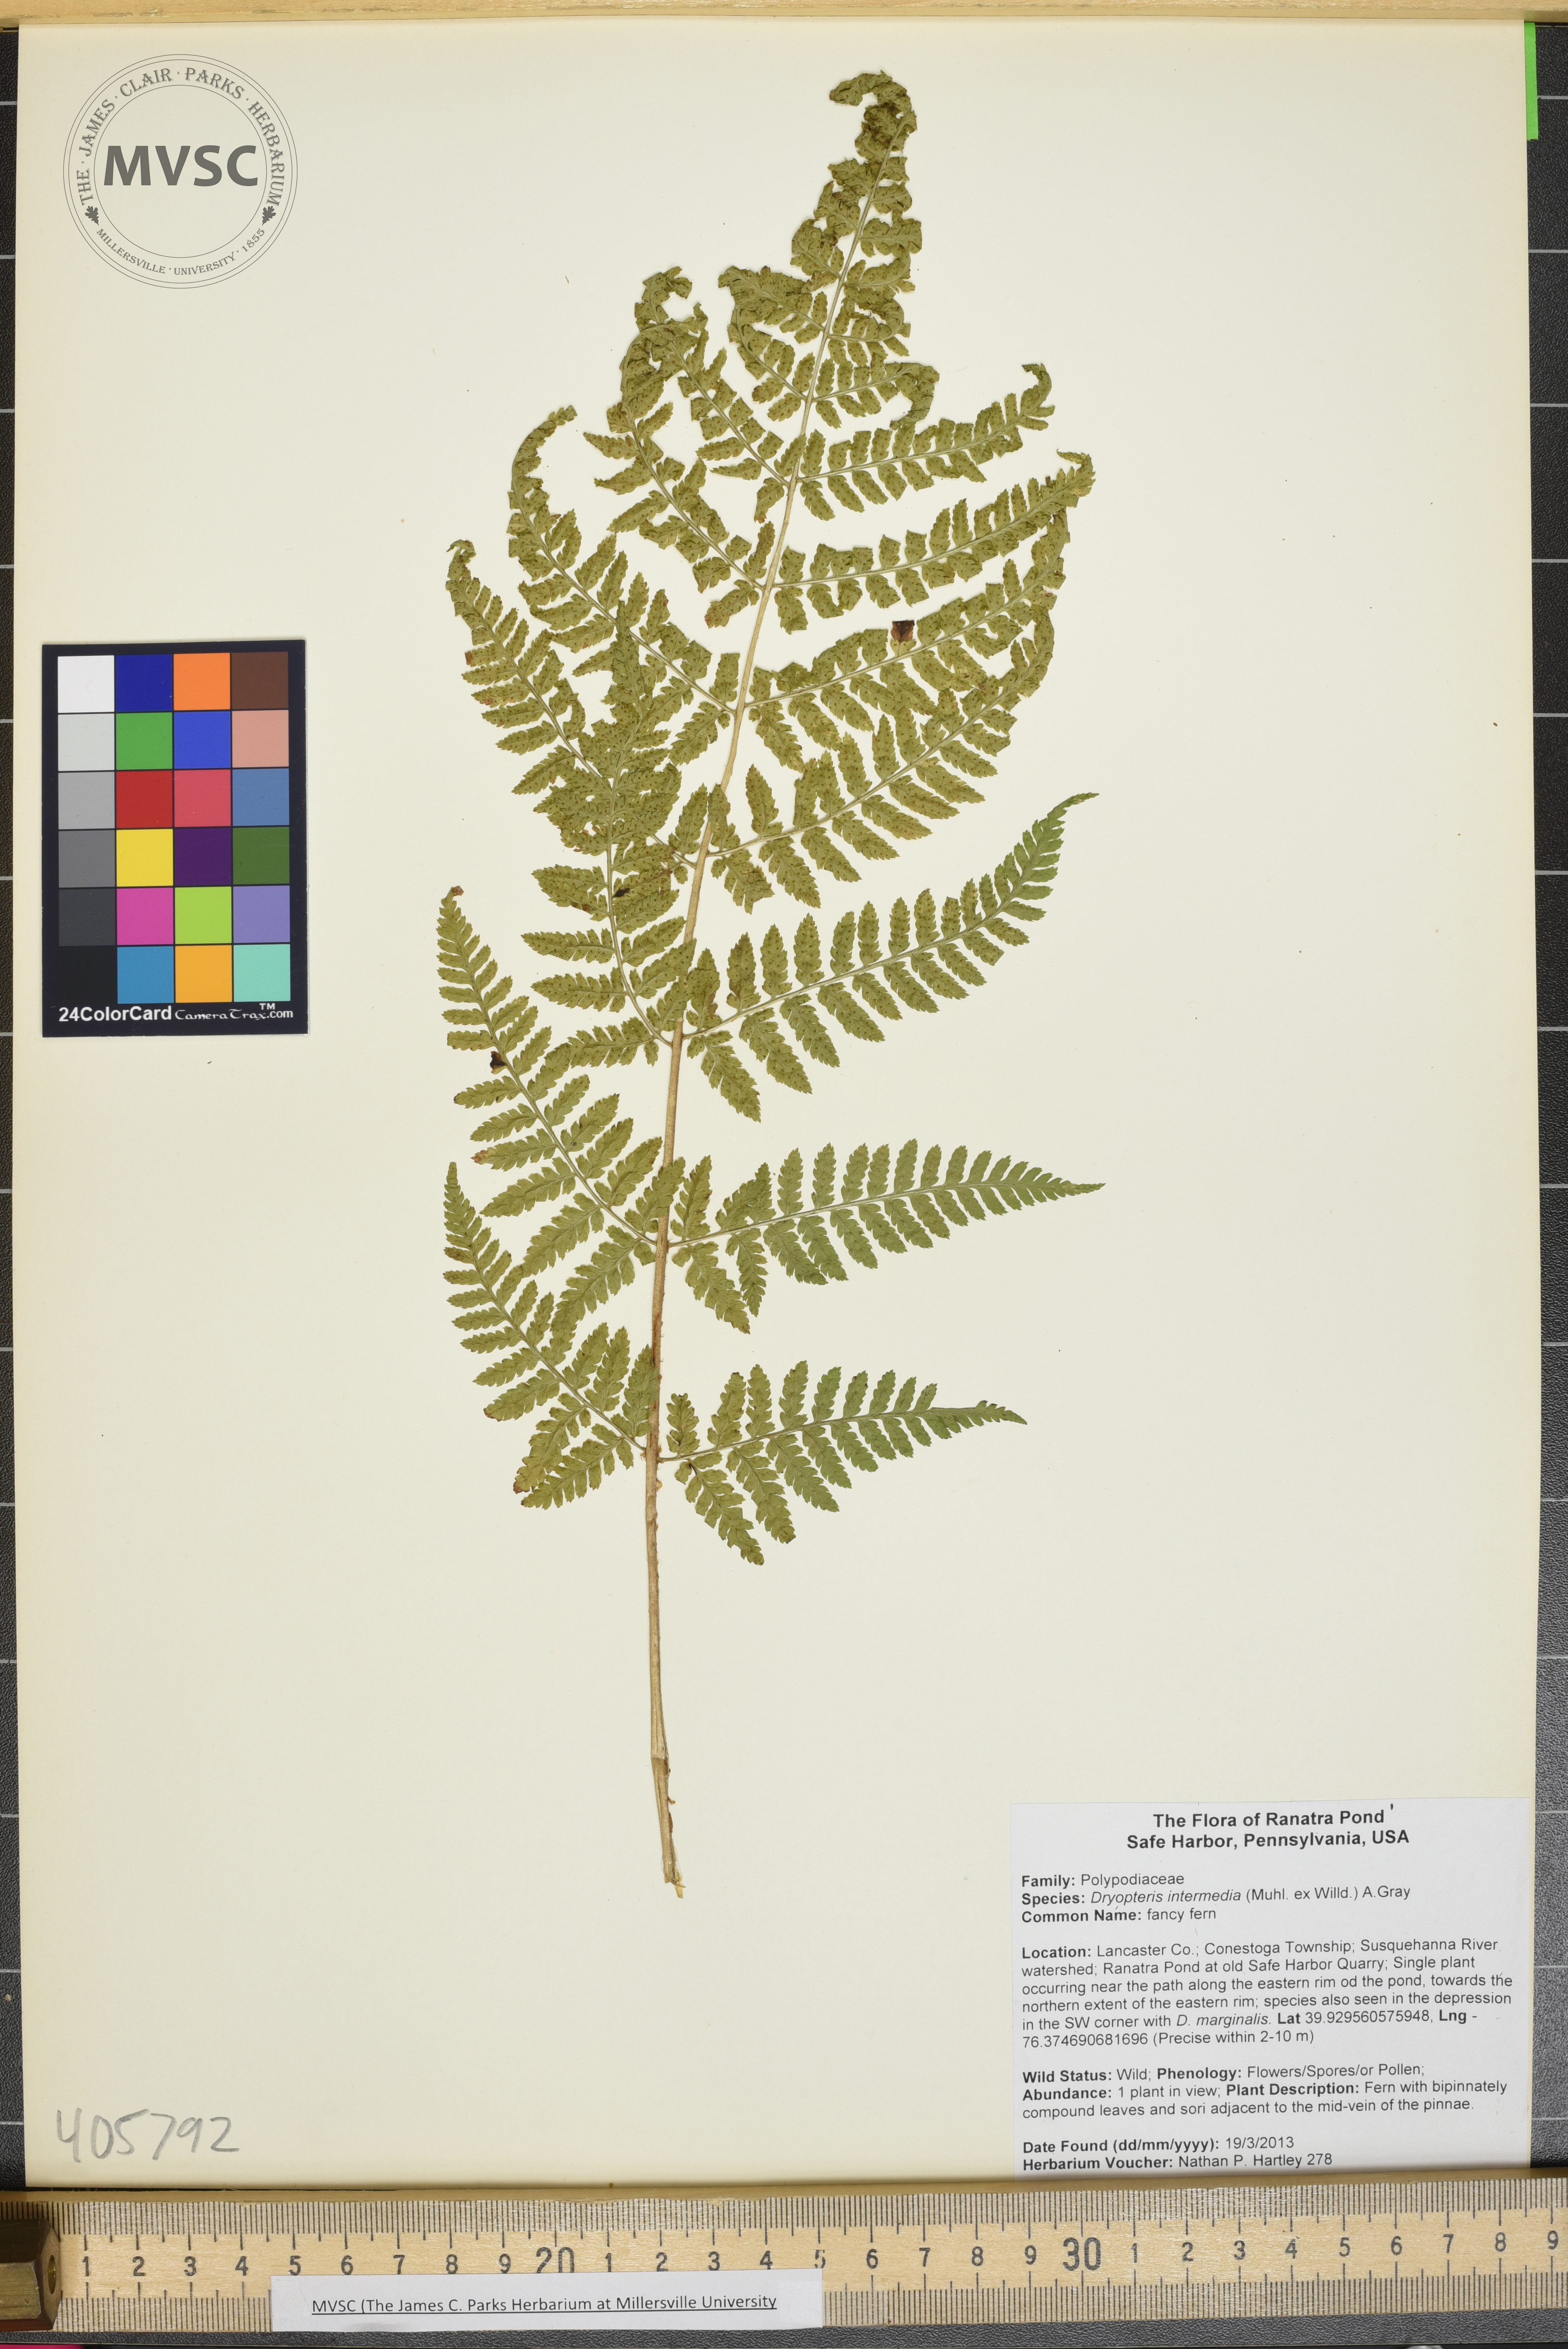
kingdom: Plantae
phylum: Tracheophyta
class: Polypodiopsida
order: Polypodiales
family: Dryopteridaceae
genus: Dryopteris
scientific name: Dryopteris intermedia
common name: fancy fern
